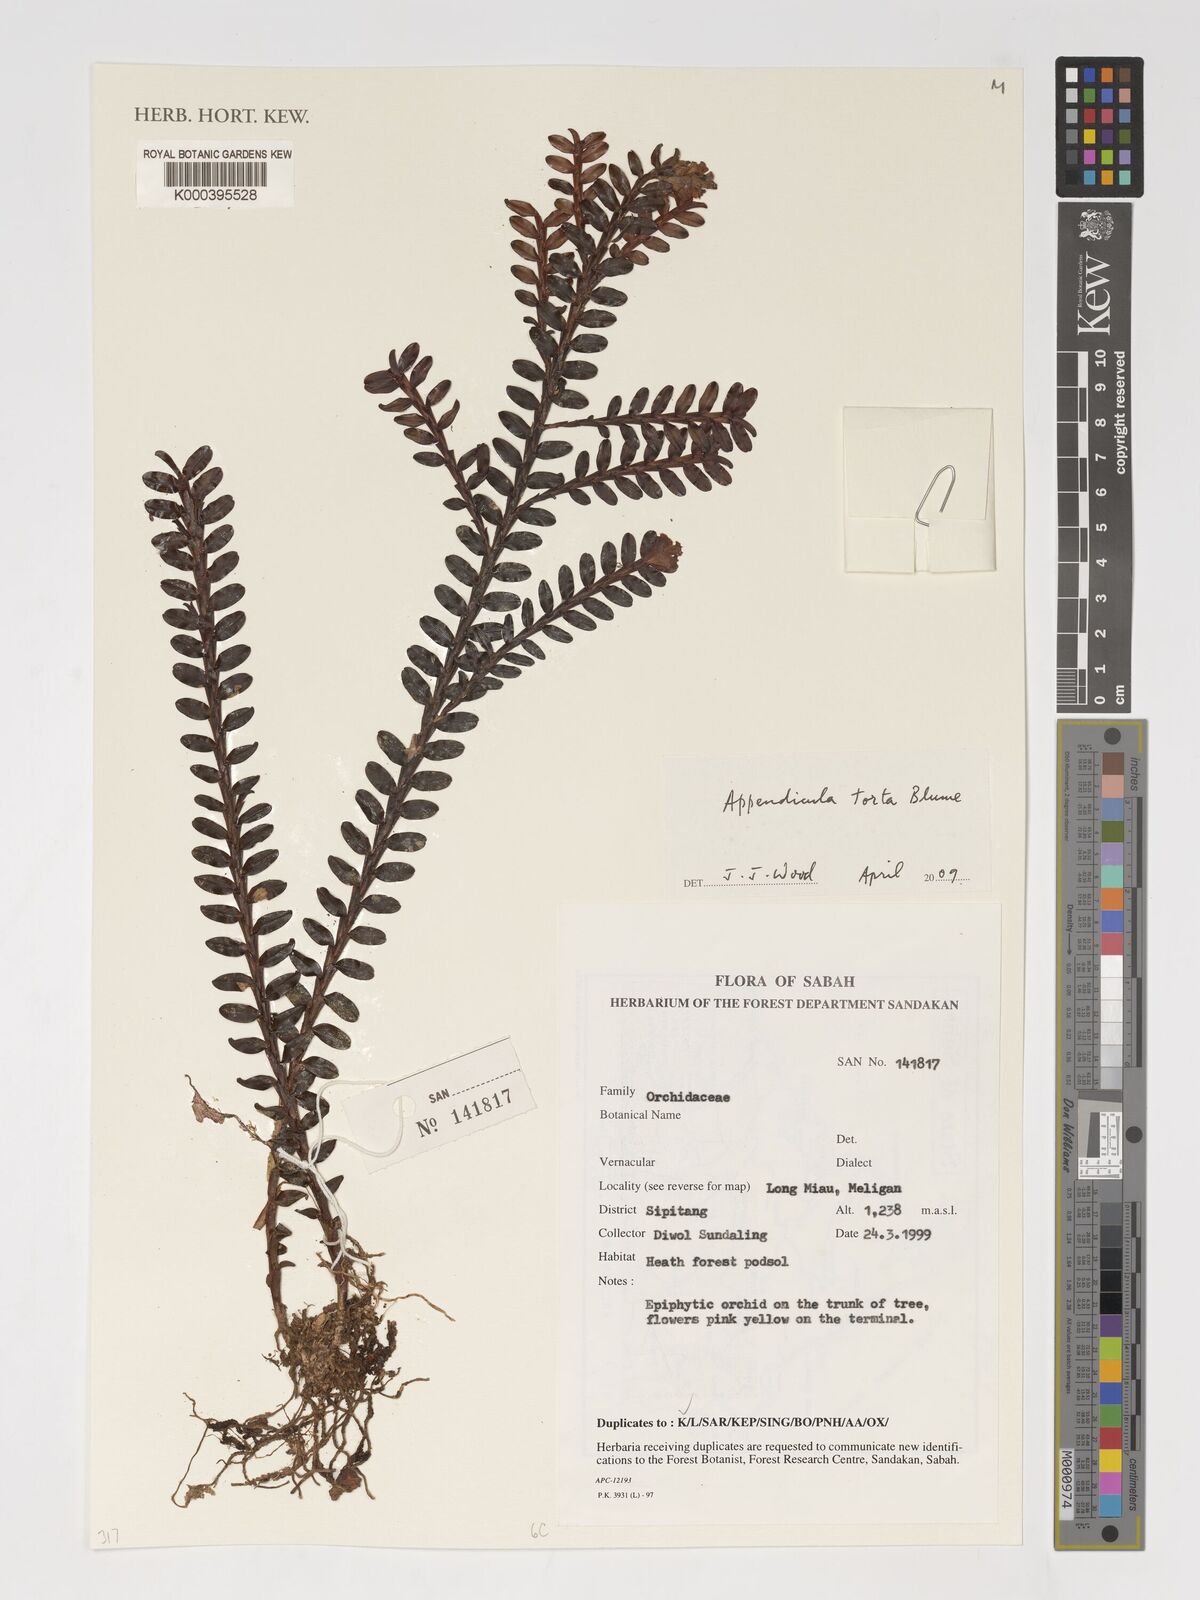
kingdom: Plantae
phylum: Tracheophyta
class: Liliopsida
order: Asparagales
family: Orchidaceae
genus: Appendicula
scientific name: Appendicula torta
